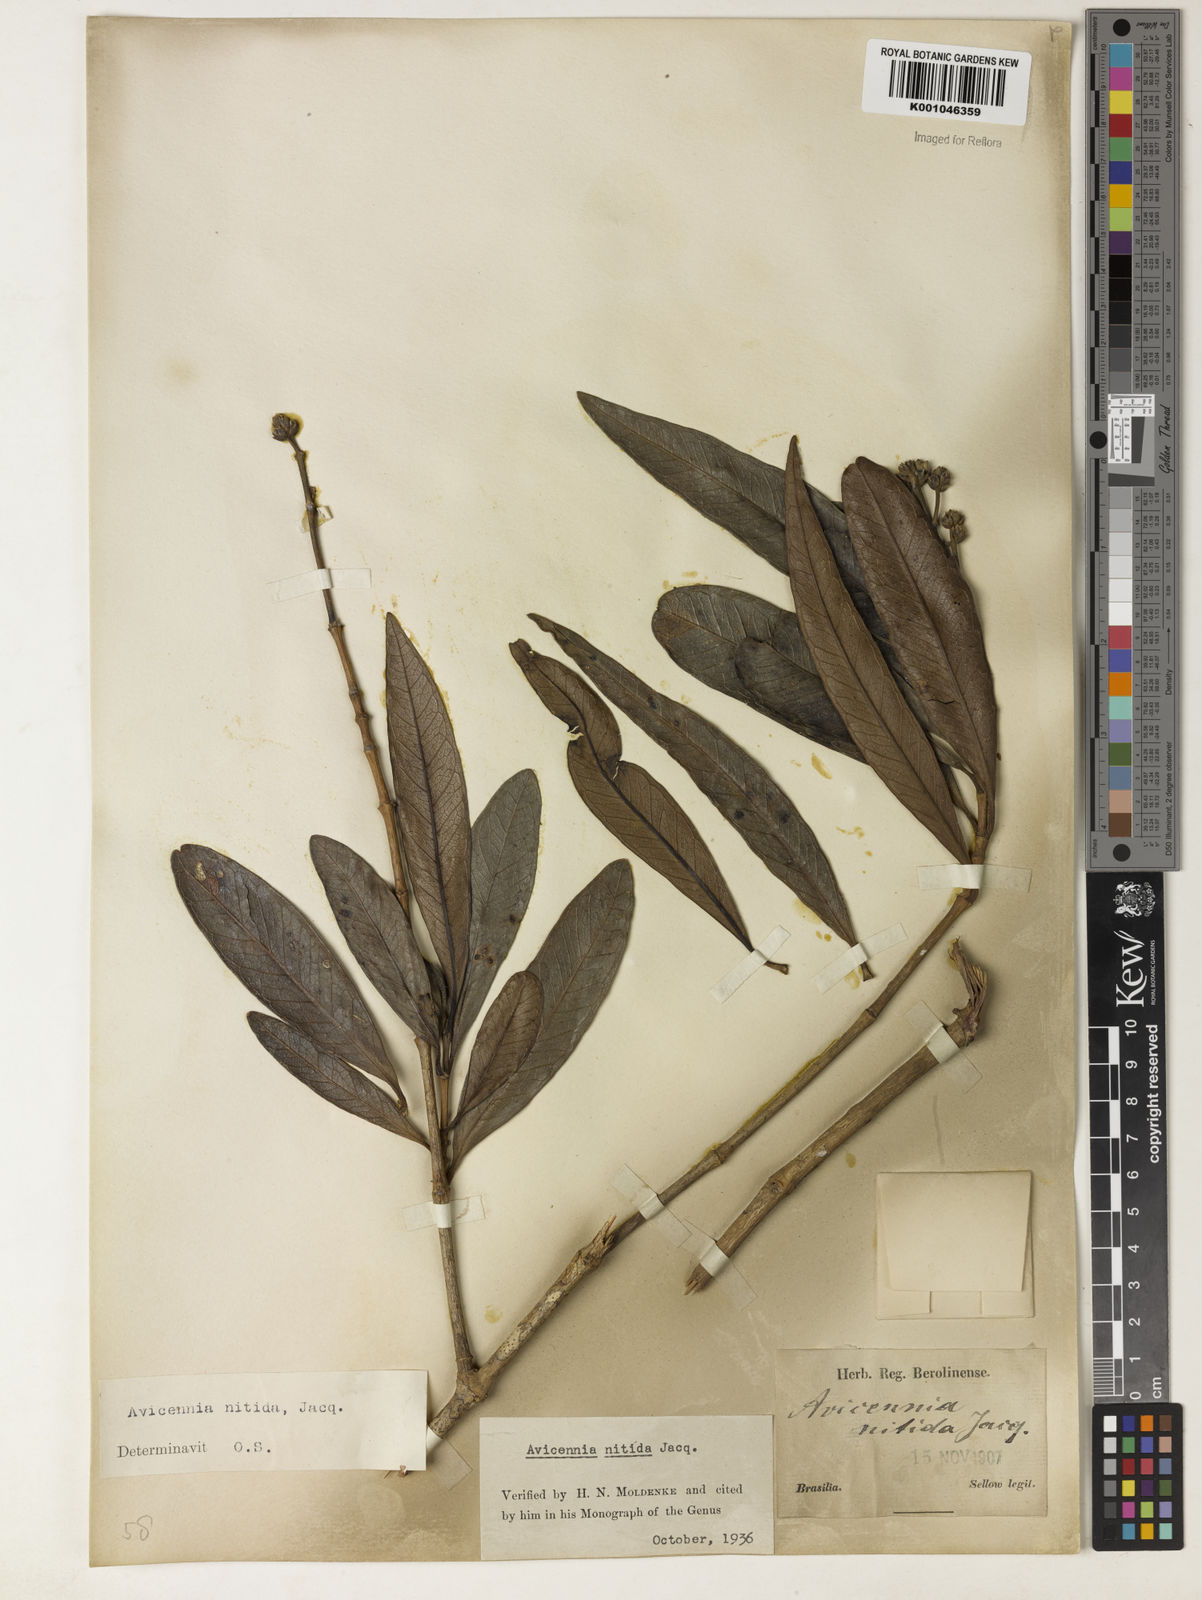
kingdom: Plantae
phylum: Tracheophyta
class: Magnoliopsida
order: Lamiales
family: Acanthaceae
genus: Avicennia
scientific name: Avicennia germinans
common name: Black mangrove
